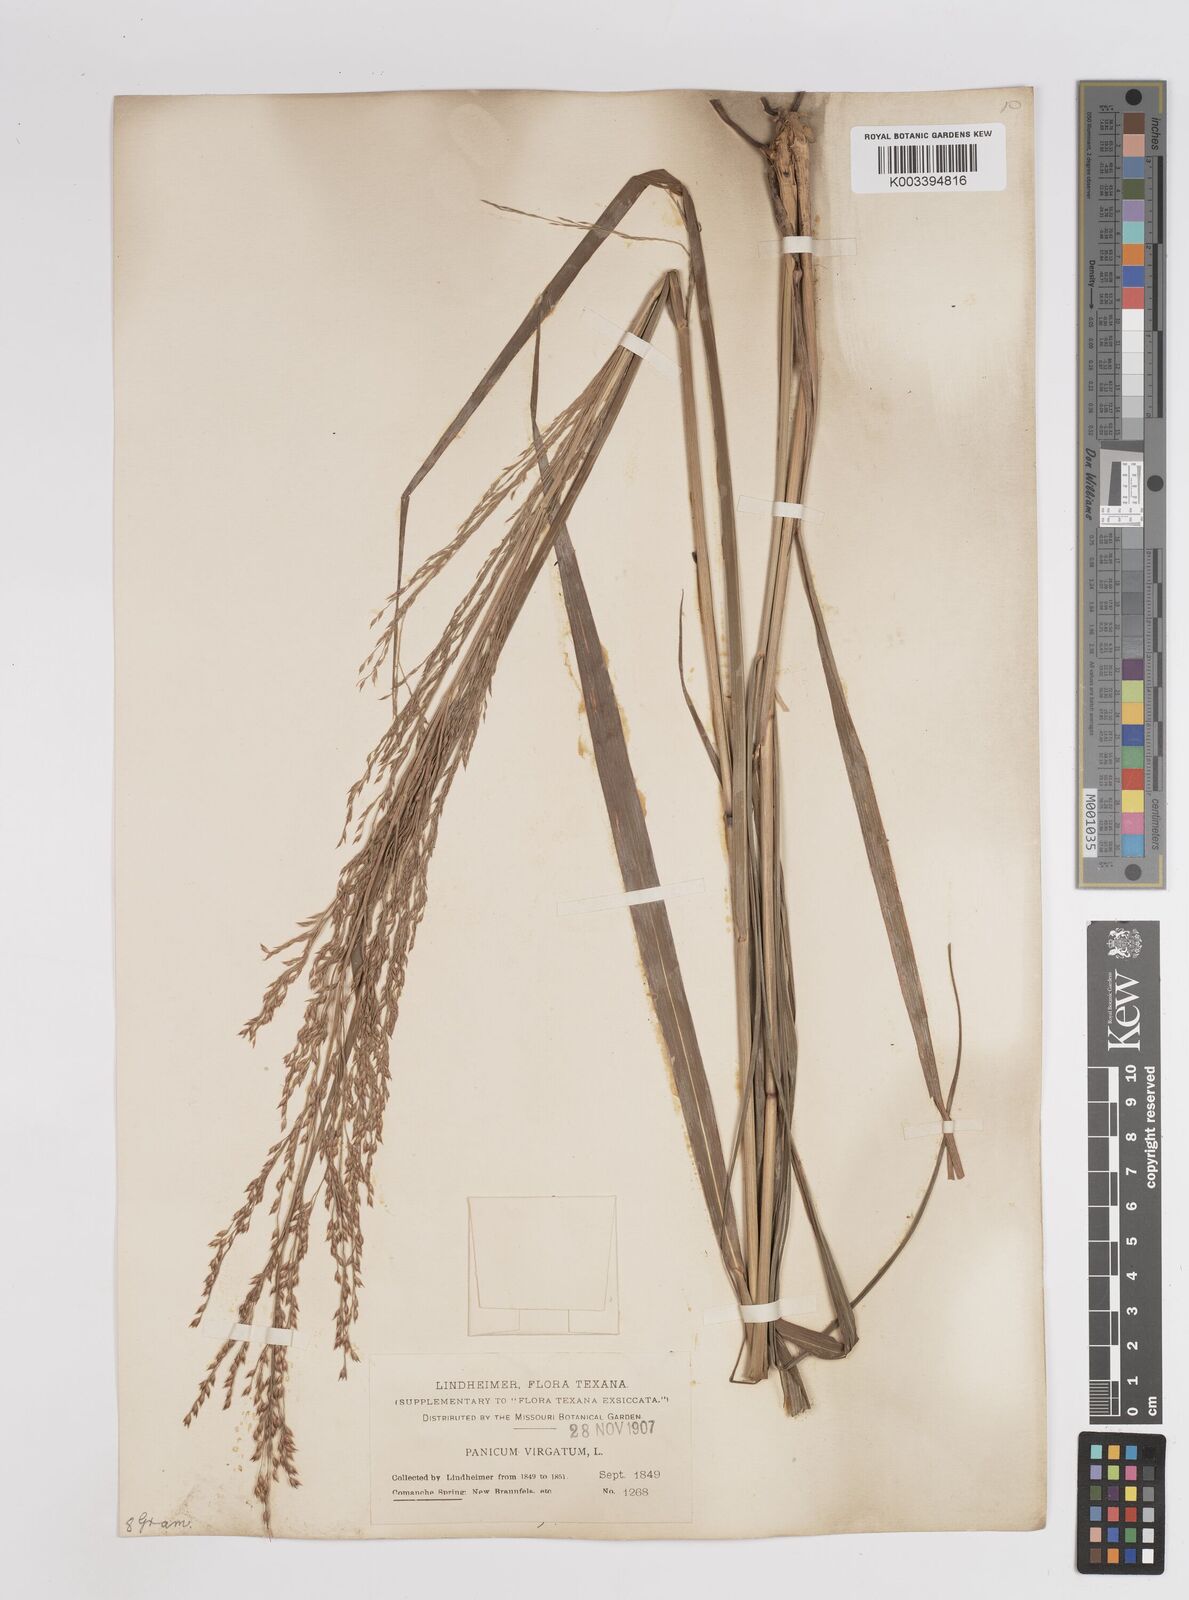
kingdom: Plantae
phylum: Tracheophyta
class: Liliopsida
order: Poales
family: Poaceae
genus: Panicum
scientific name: Panicum virgatum
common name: Switchgrass
